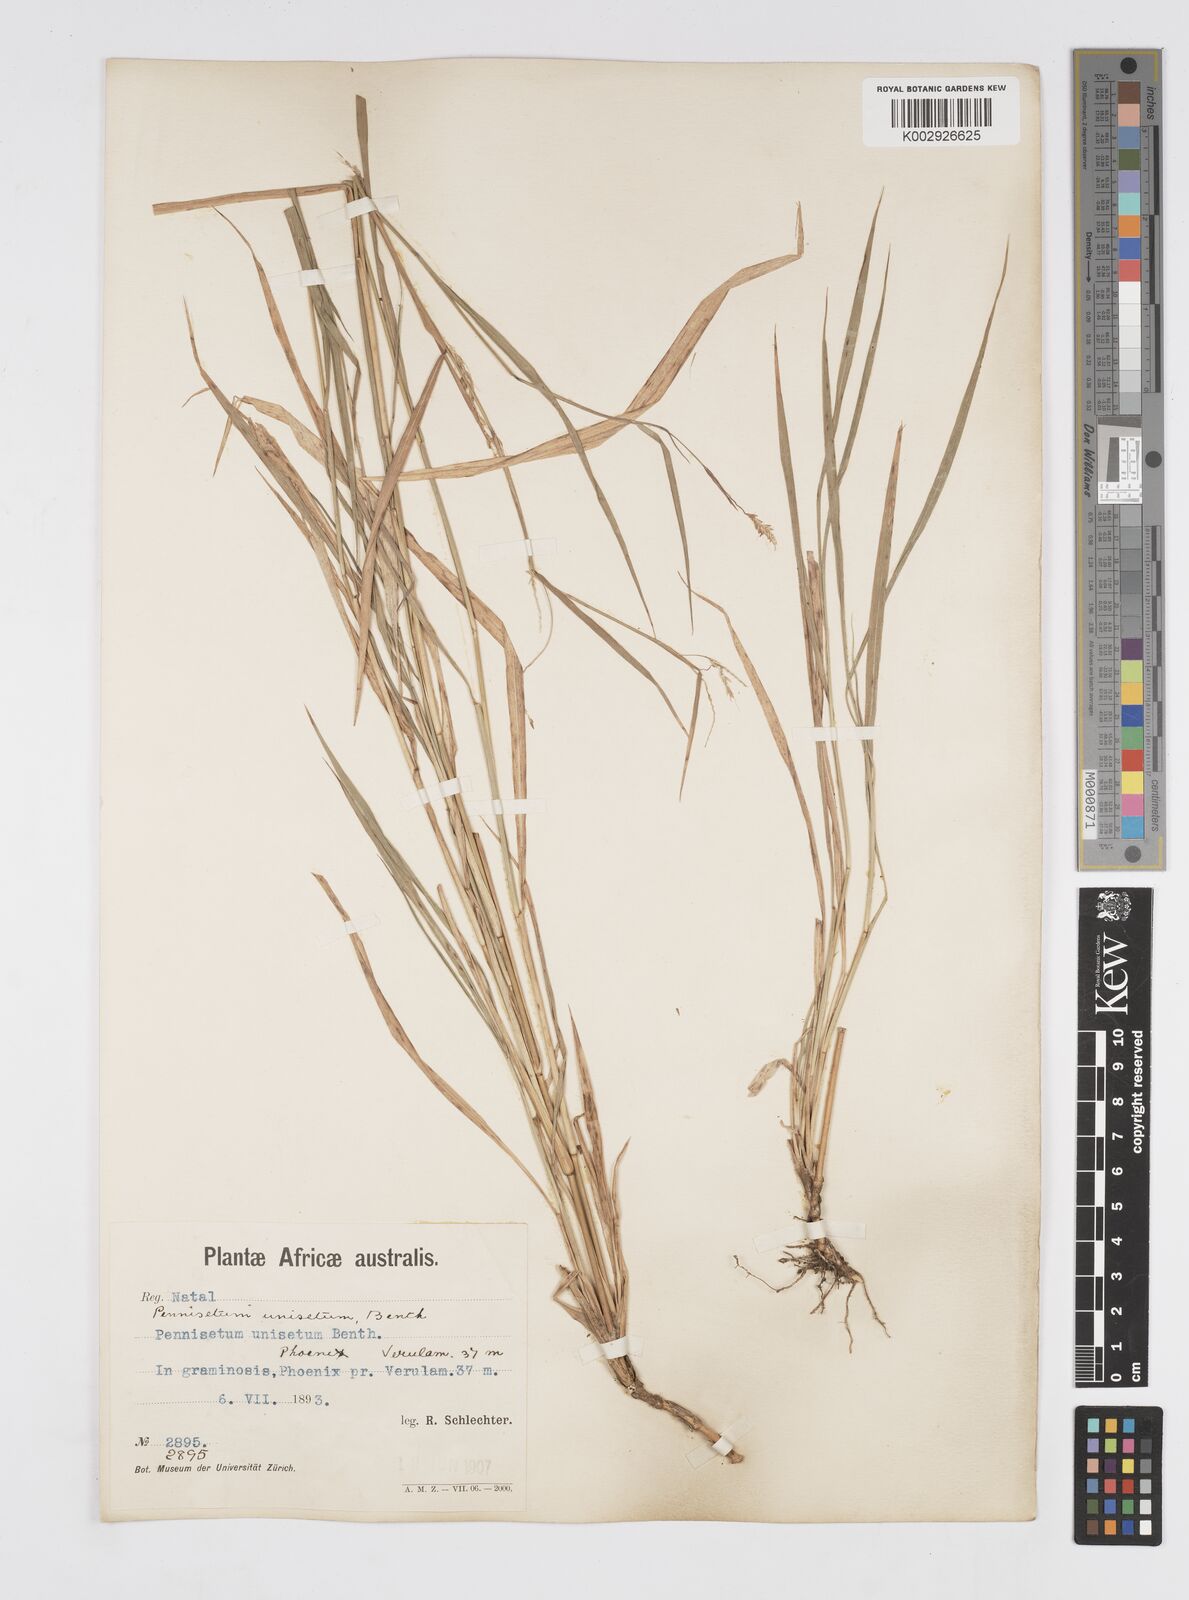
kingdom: Plantae
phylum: Tracheophyta
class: Liliopsida
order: Poales
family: Poaceae
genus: Cenchrus
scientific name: Cenchrus unisetus
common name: Natal grass
